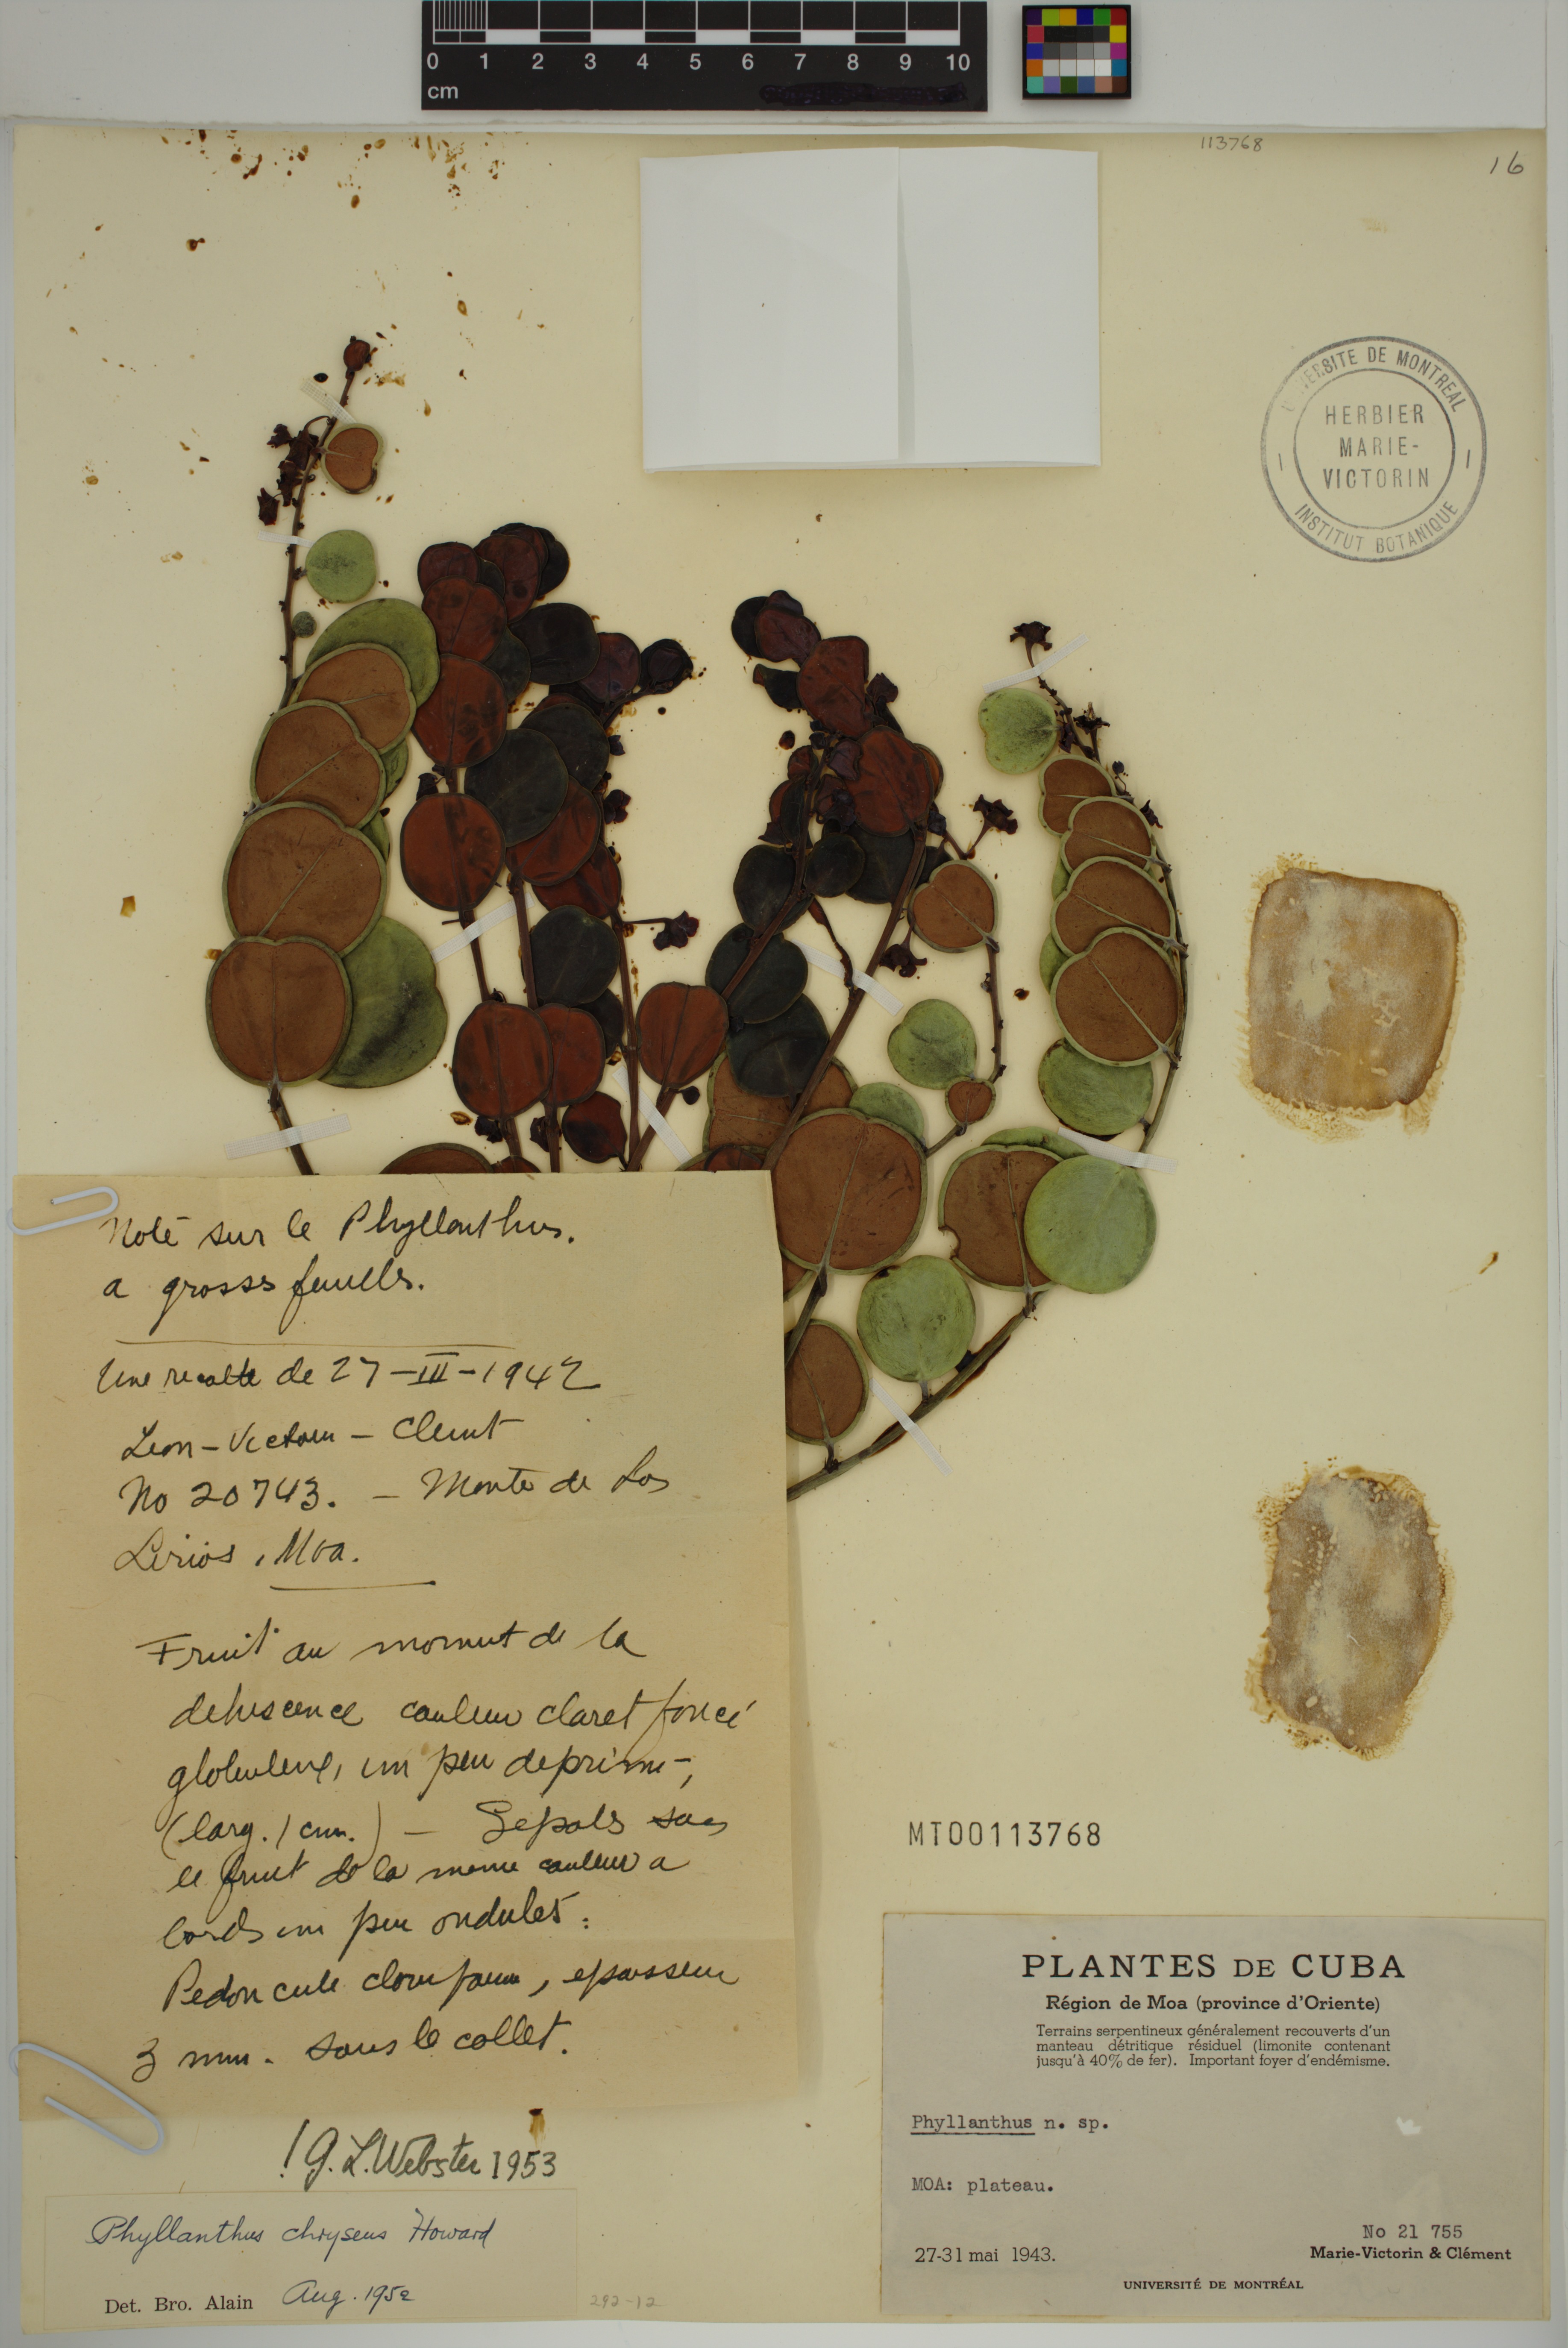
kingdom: Plantae
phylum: Tracheophyta
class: Magnoliopsida
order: Malpighiales
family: Phyllanthaceae
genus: Phyllanthus
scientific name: Phyllanthus chryseus
